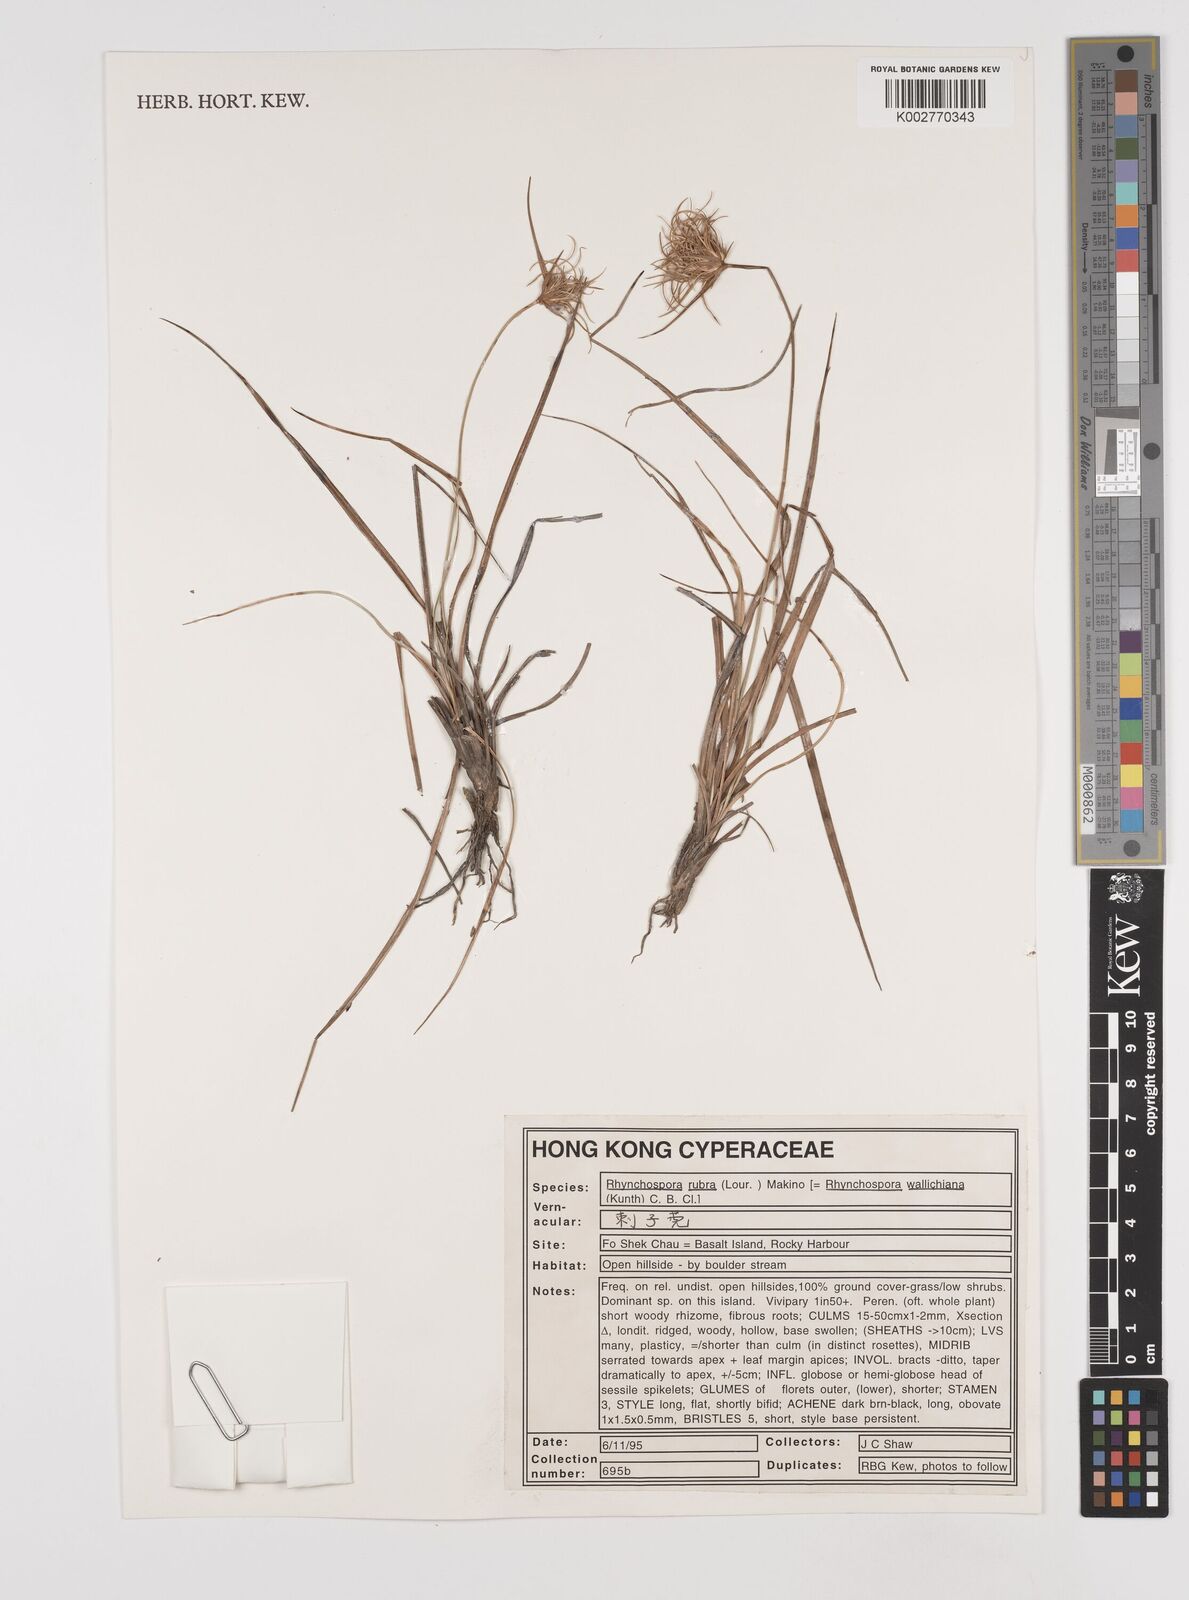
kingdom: Plantae
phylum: Tracheophyta
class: Liliopsida
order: Poales
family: Cyperaceae
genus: Rhynchospora
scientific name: Rhynchospora rubra
